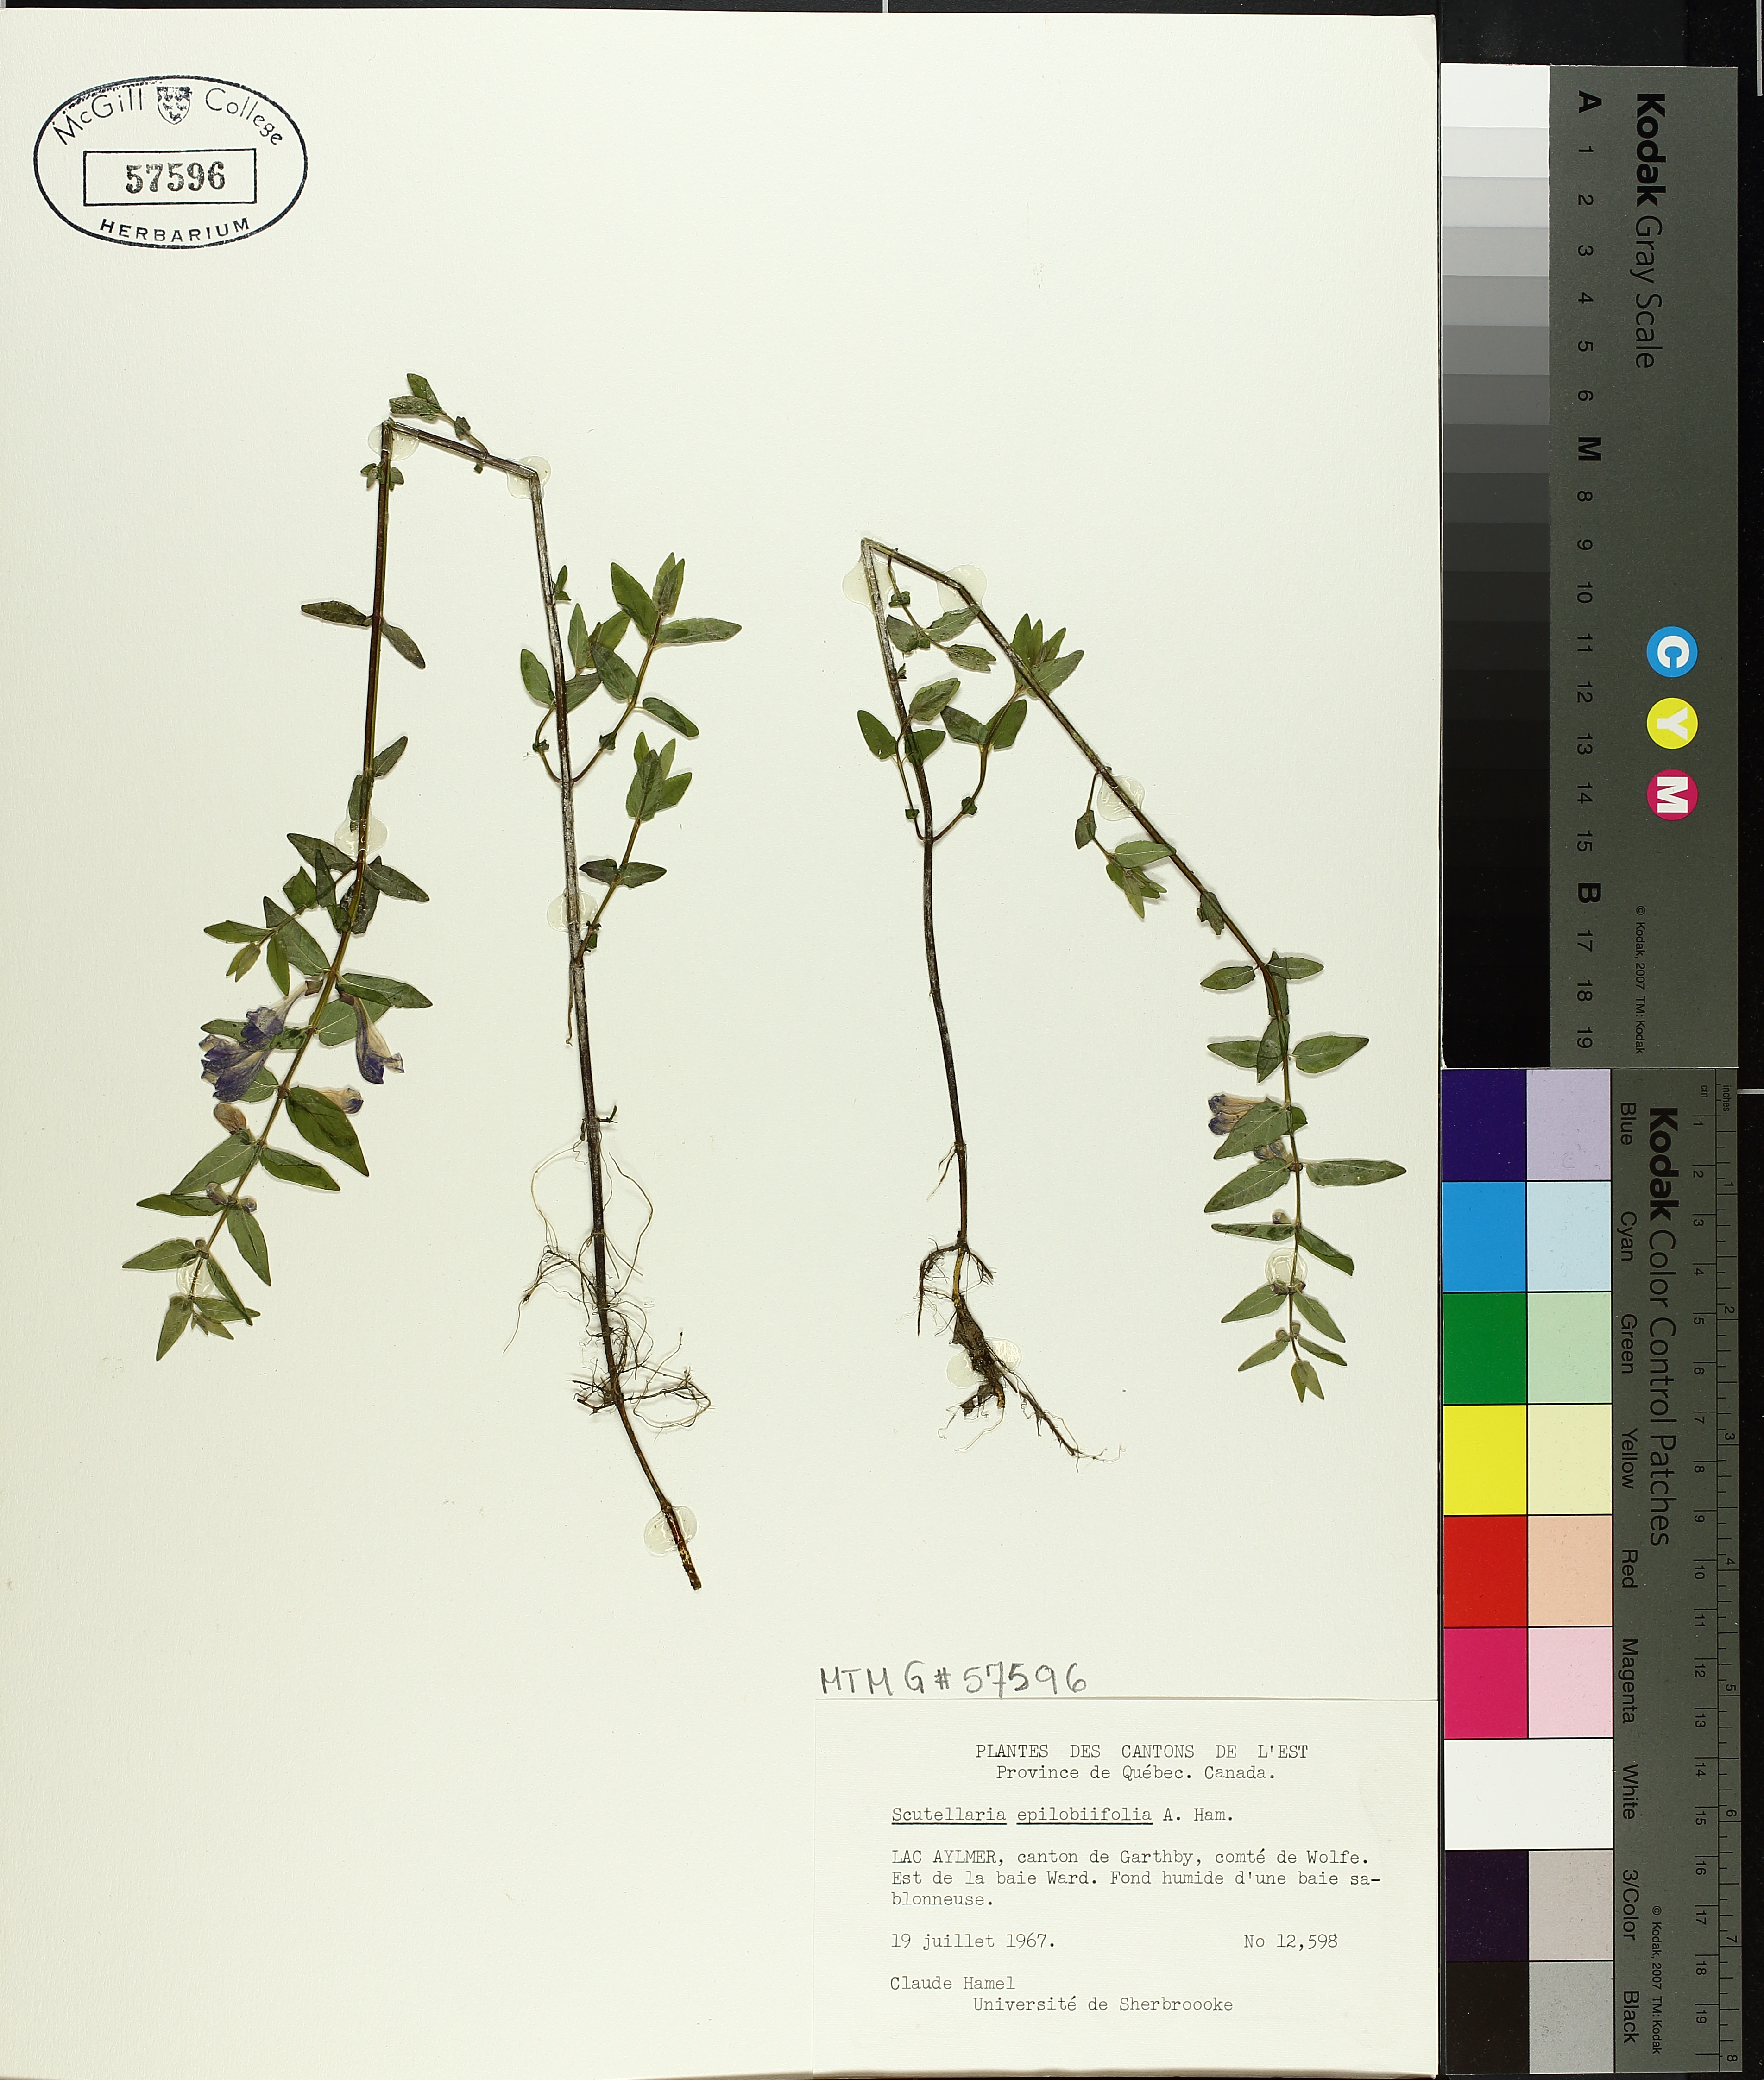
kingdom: Plantae
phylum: Tracheophyta
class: Magnoliopsida
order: Lamiales
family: Lamiaceae
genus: Scutellaria
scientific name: Scutellaria galericulata
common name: Skullcap
